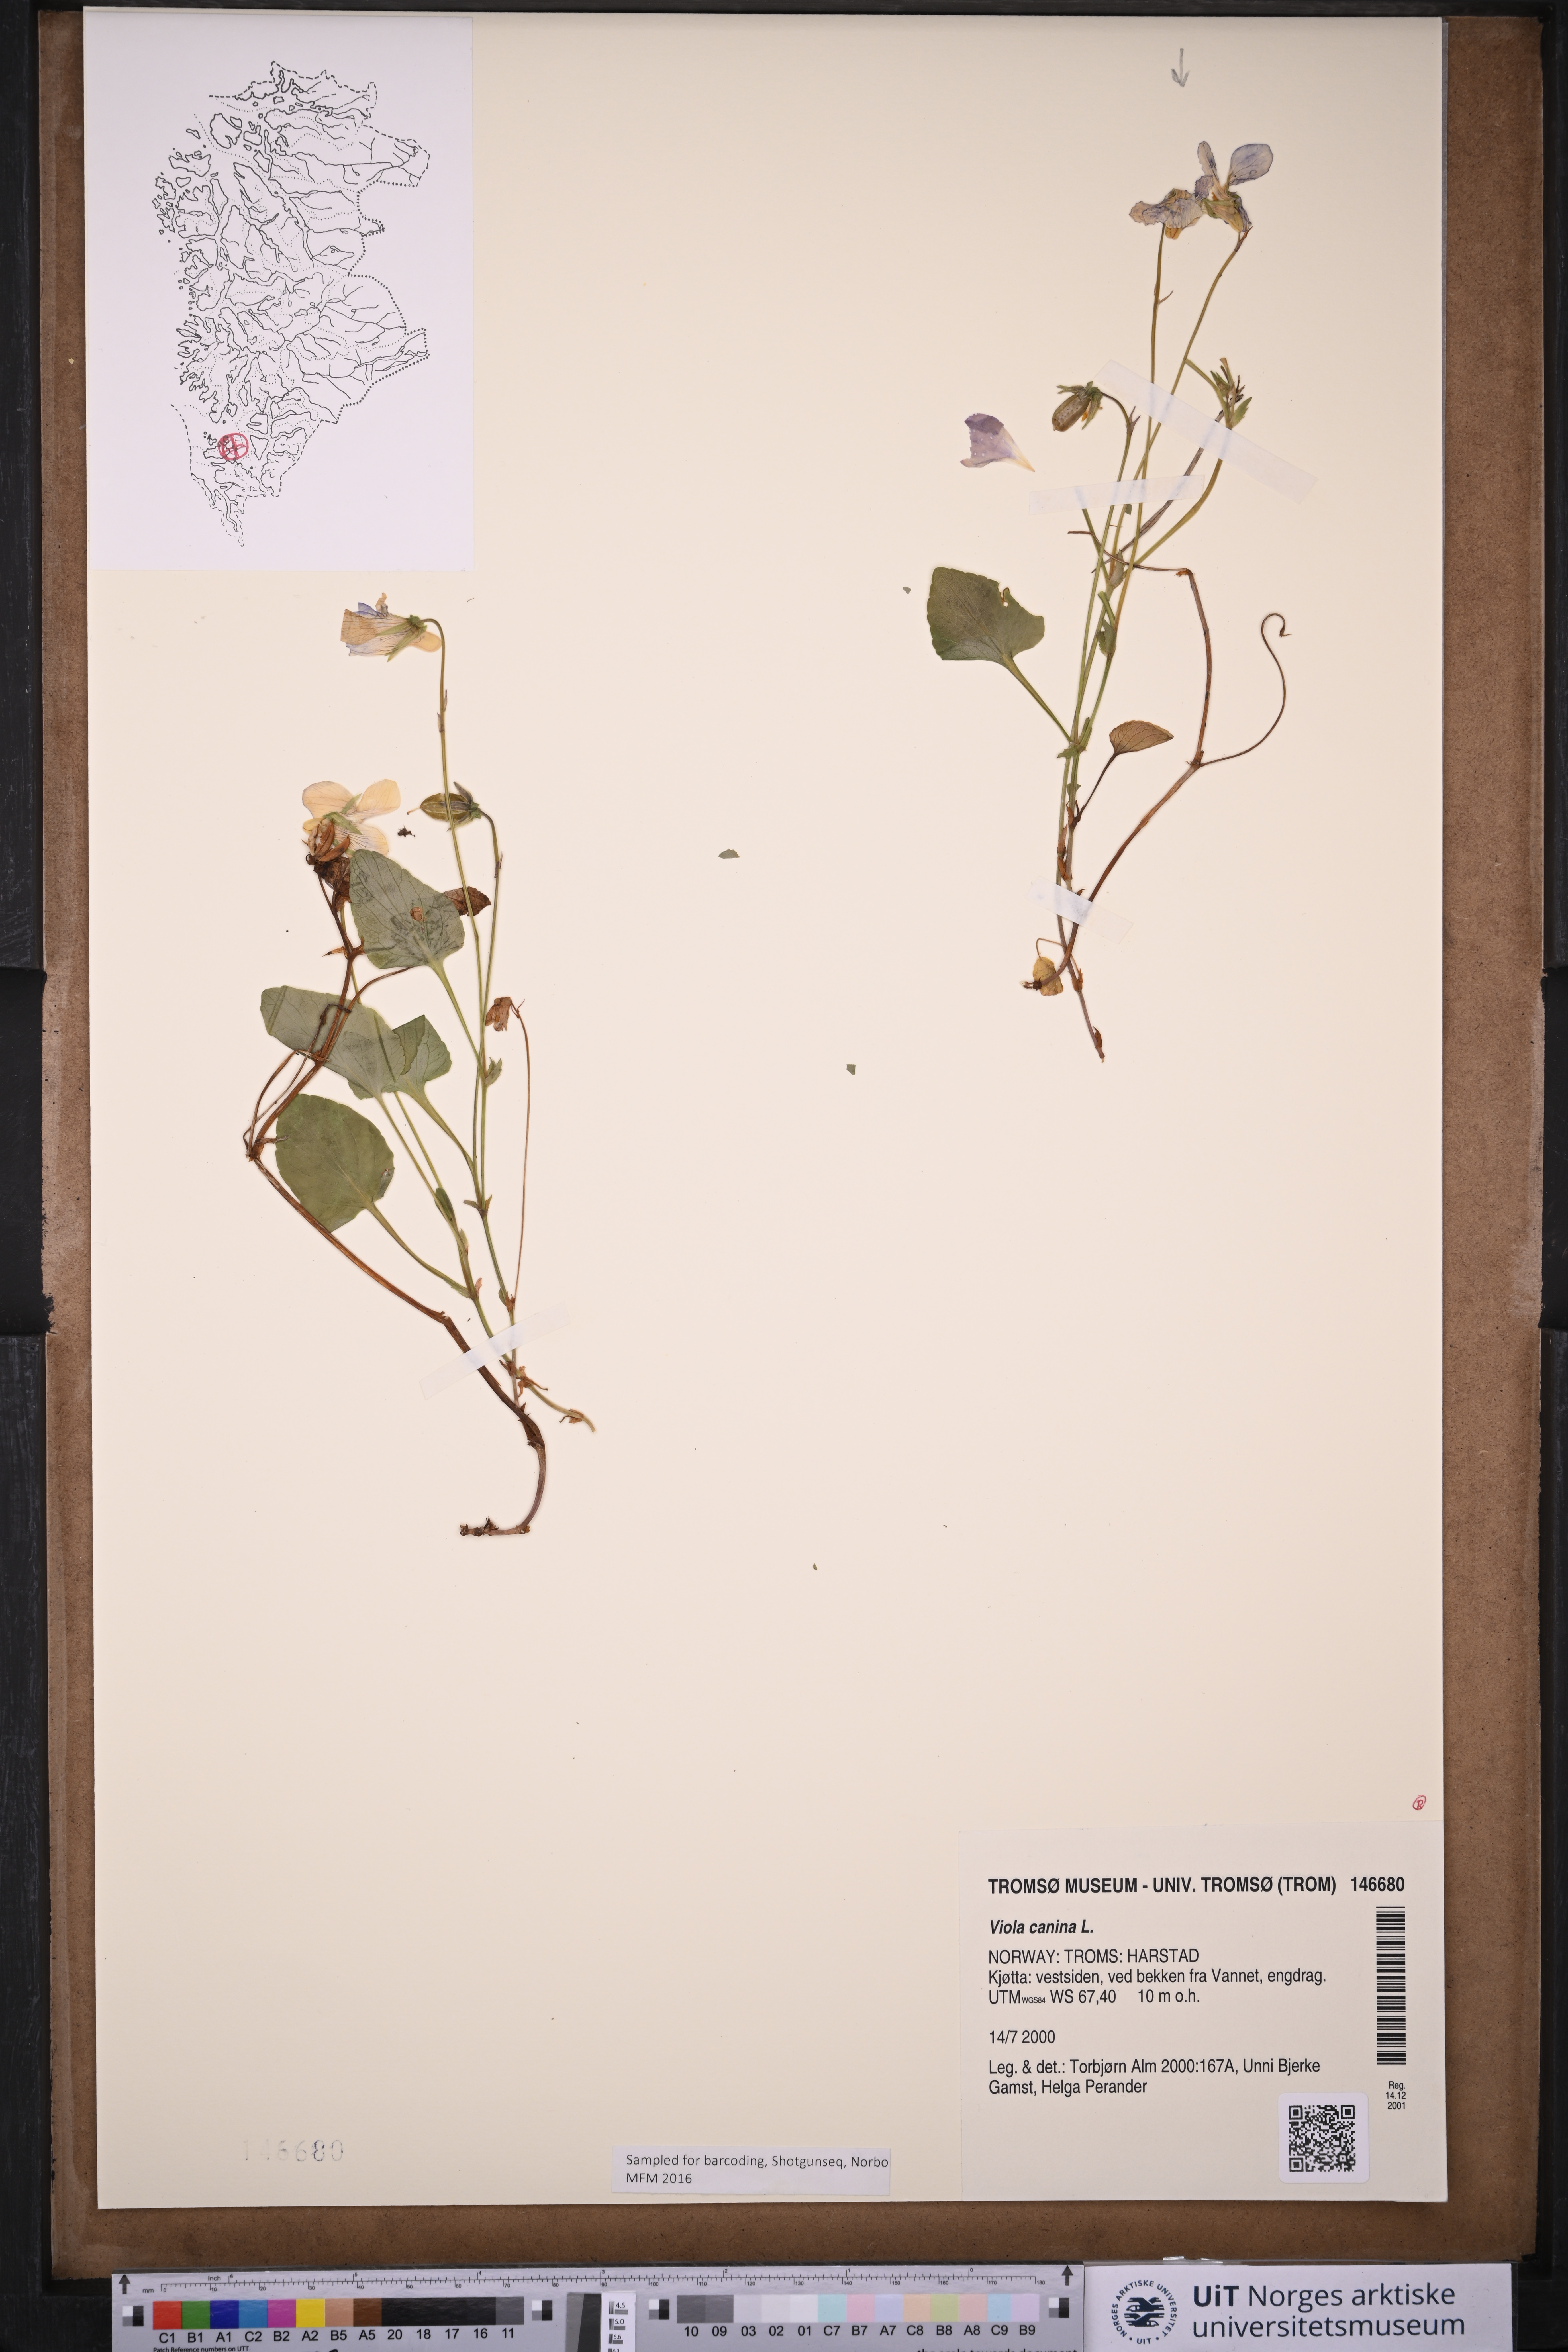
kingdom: Plantae
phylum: Tracheophyta
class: Magnoliopsida
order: Malpighiales
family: Violaceae
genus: Viola
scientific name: Viola canina
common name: Heath dog-violet
